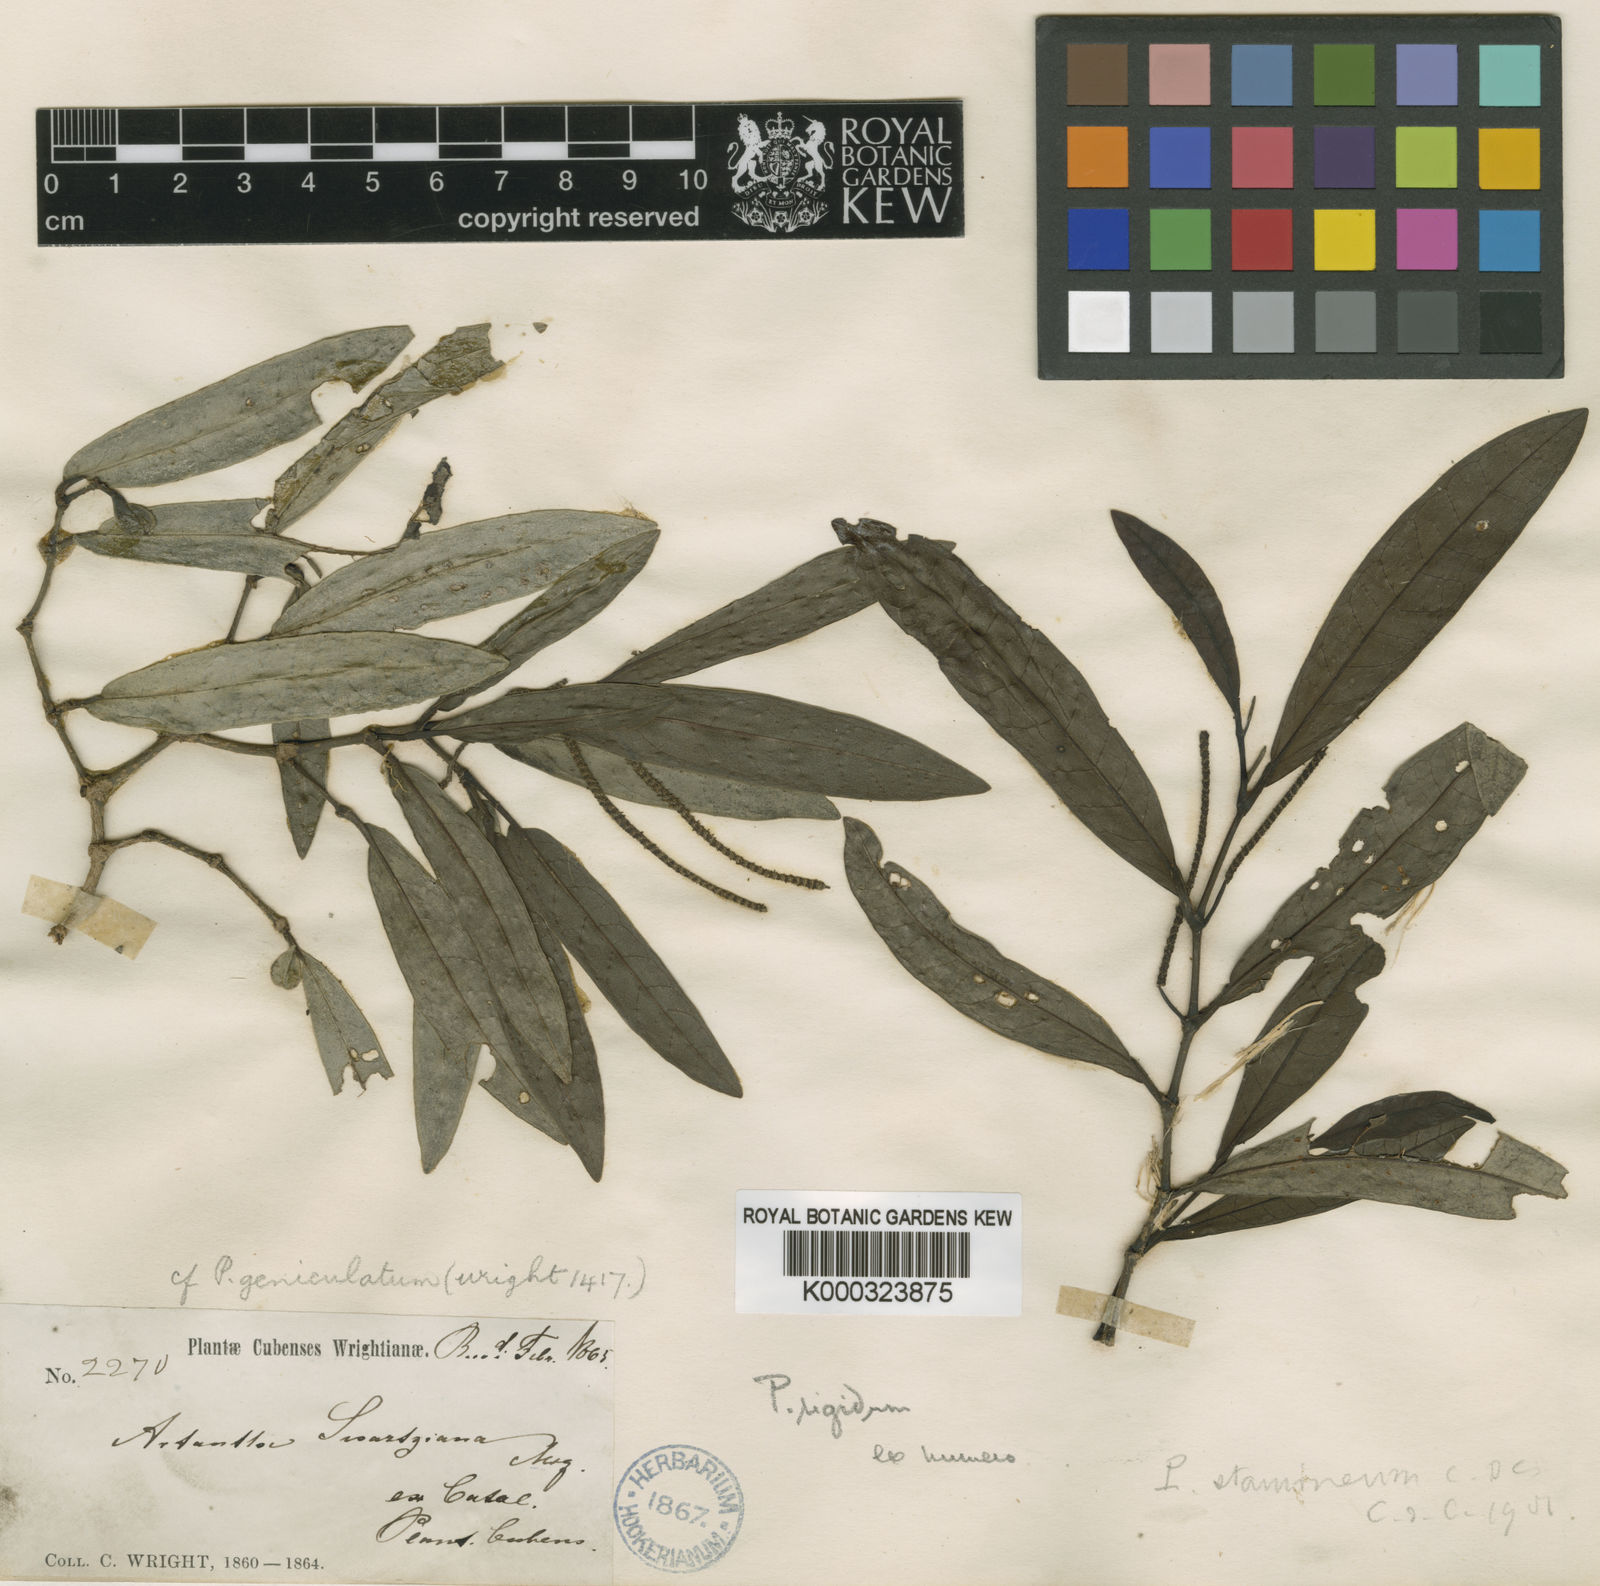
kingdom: Plantae
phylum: Tracheophyta
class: Magnoliopsida
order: Piperales
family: Piperaceae
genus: Piper
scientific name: Piper arboreum
